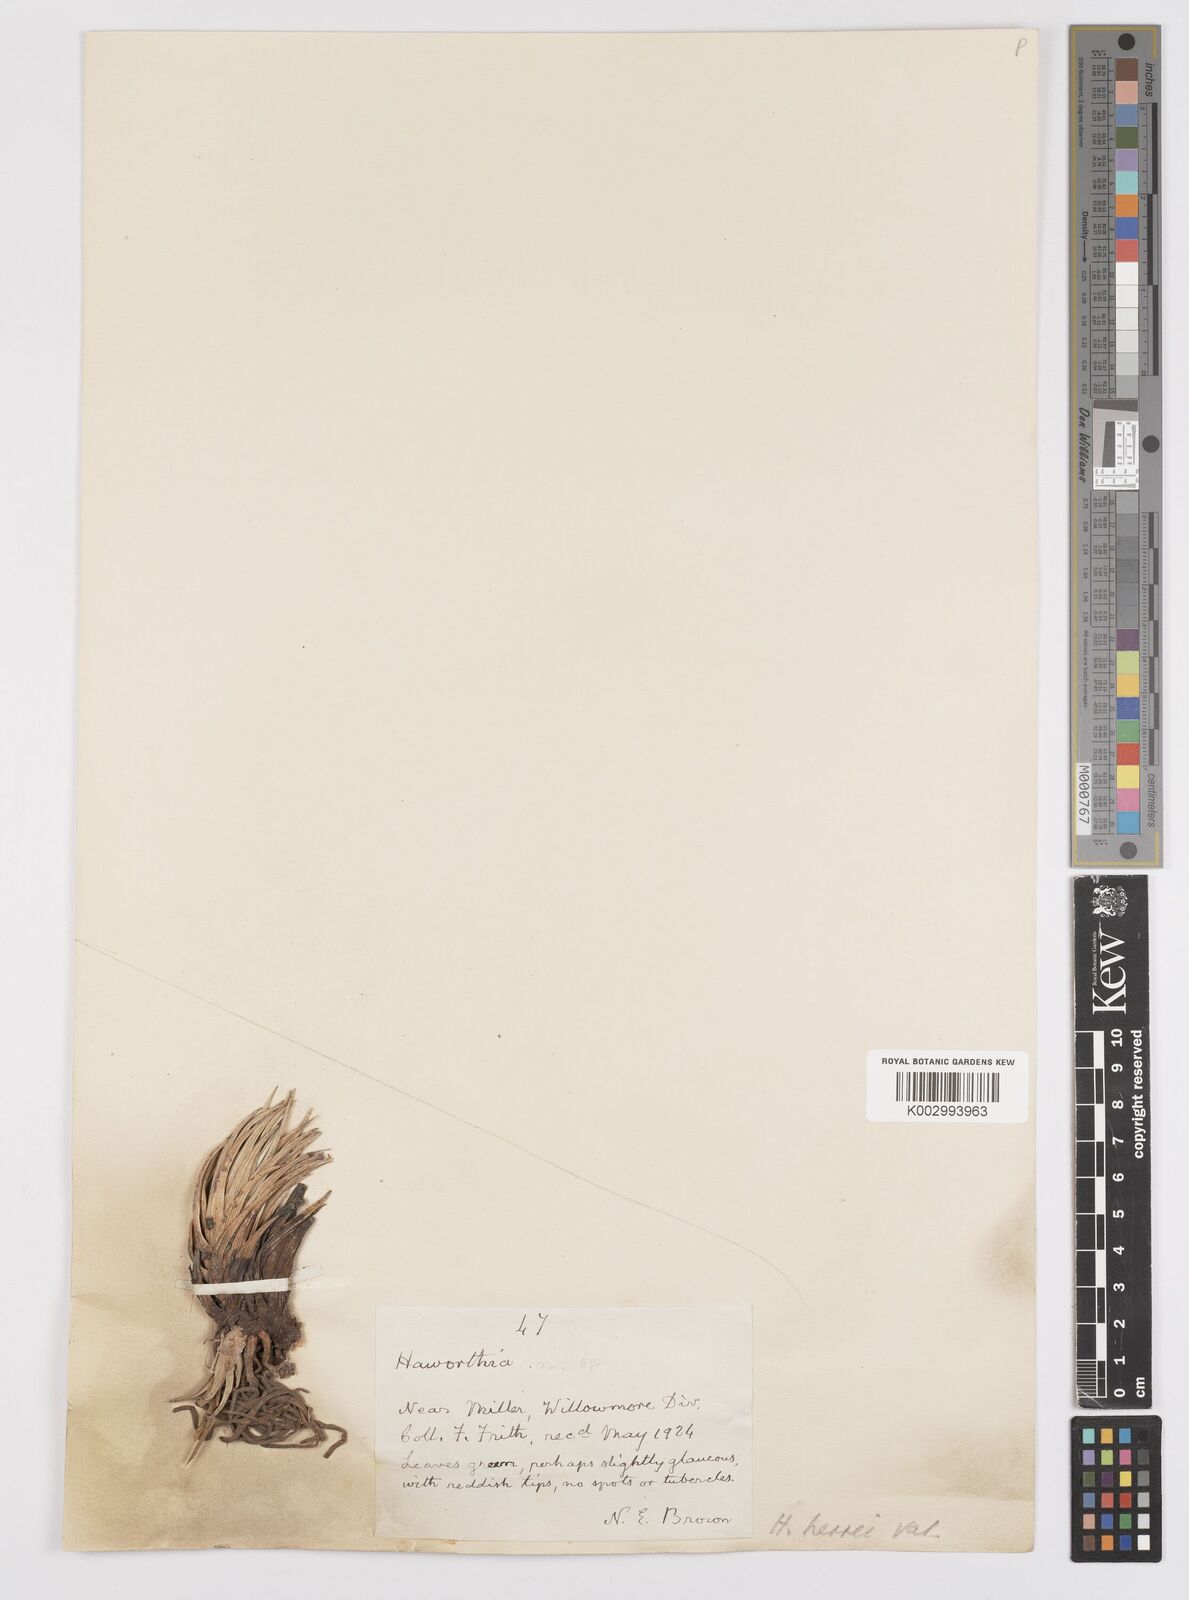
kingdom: Plantae
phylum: Tracheophyta
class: Liliopsida
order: Asparagales
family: Asphodelaceae
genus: Haworthiopsis
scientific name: Haworthiopsis glauca
